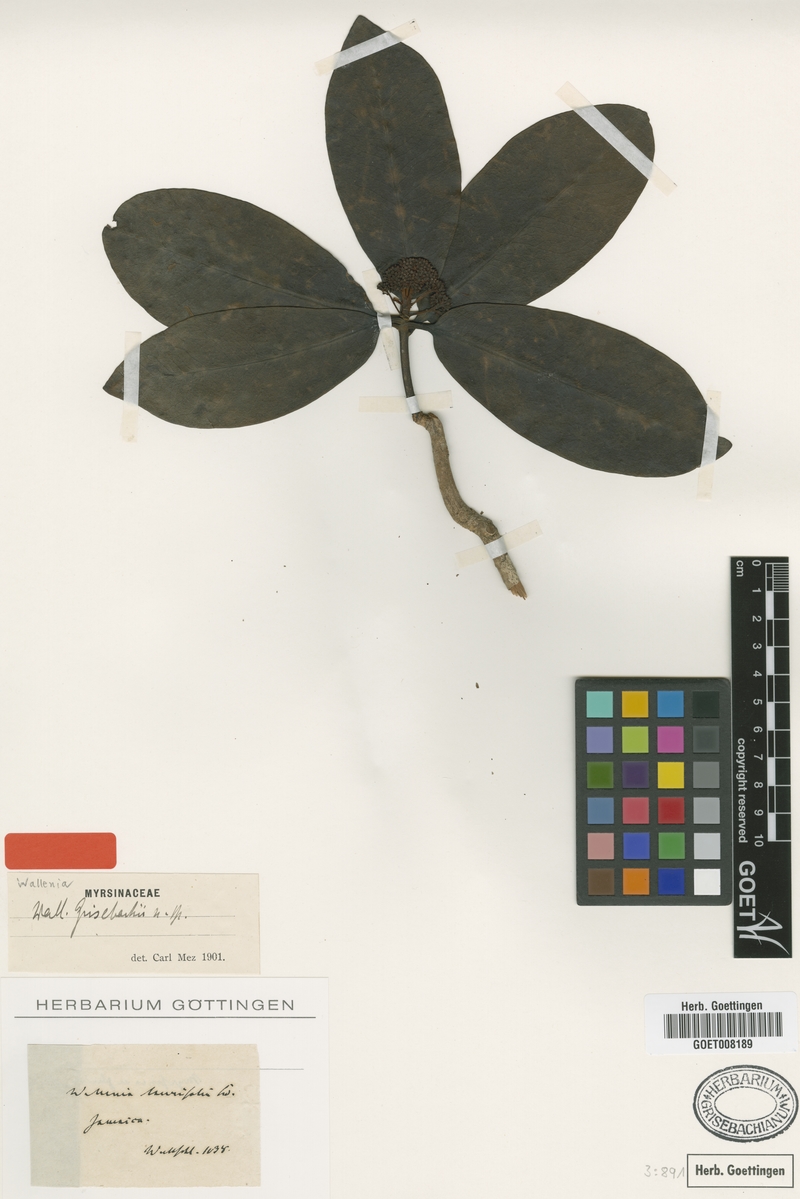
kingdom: Plantae
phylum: Tracheophyta
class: Magnoliopsida
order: Ericales
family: Primulaceae
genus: Wallenia
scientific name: Wallenia elliptica
